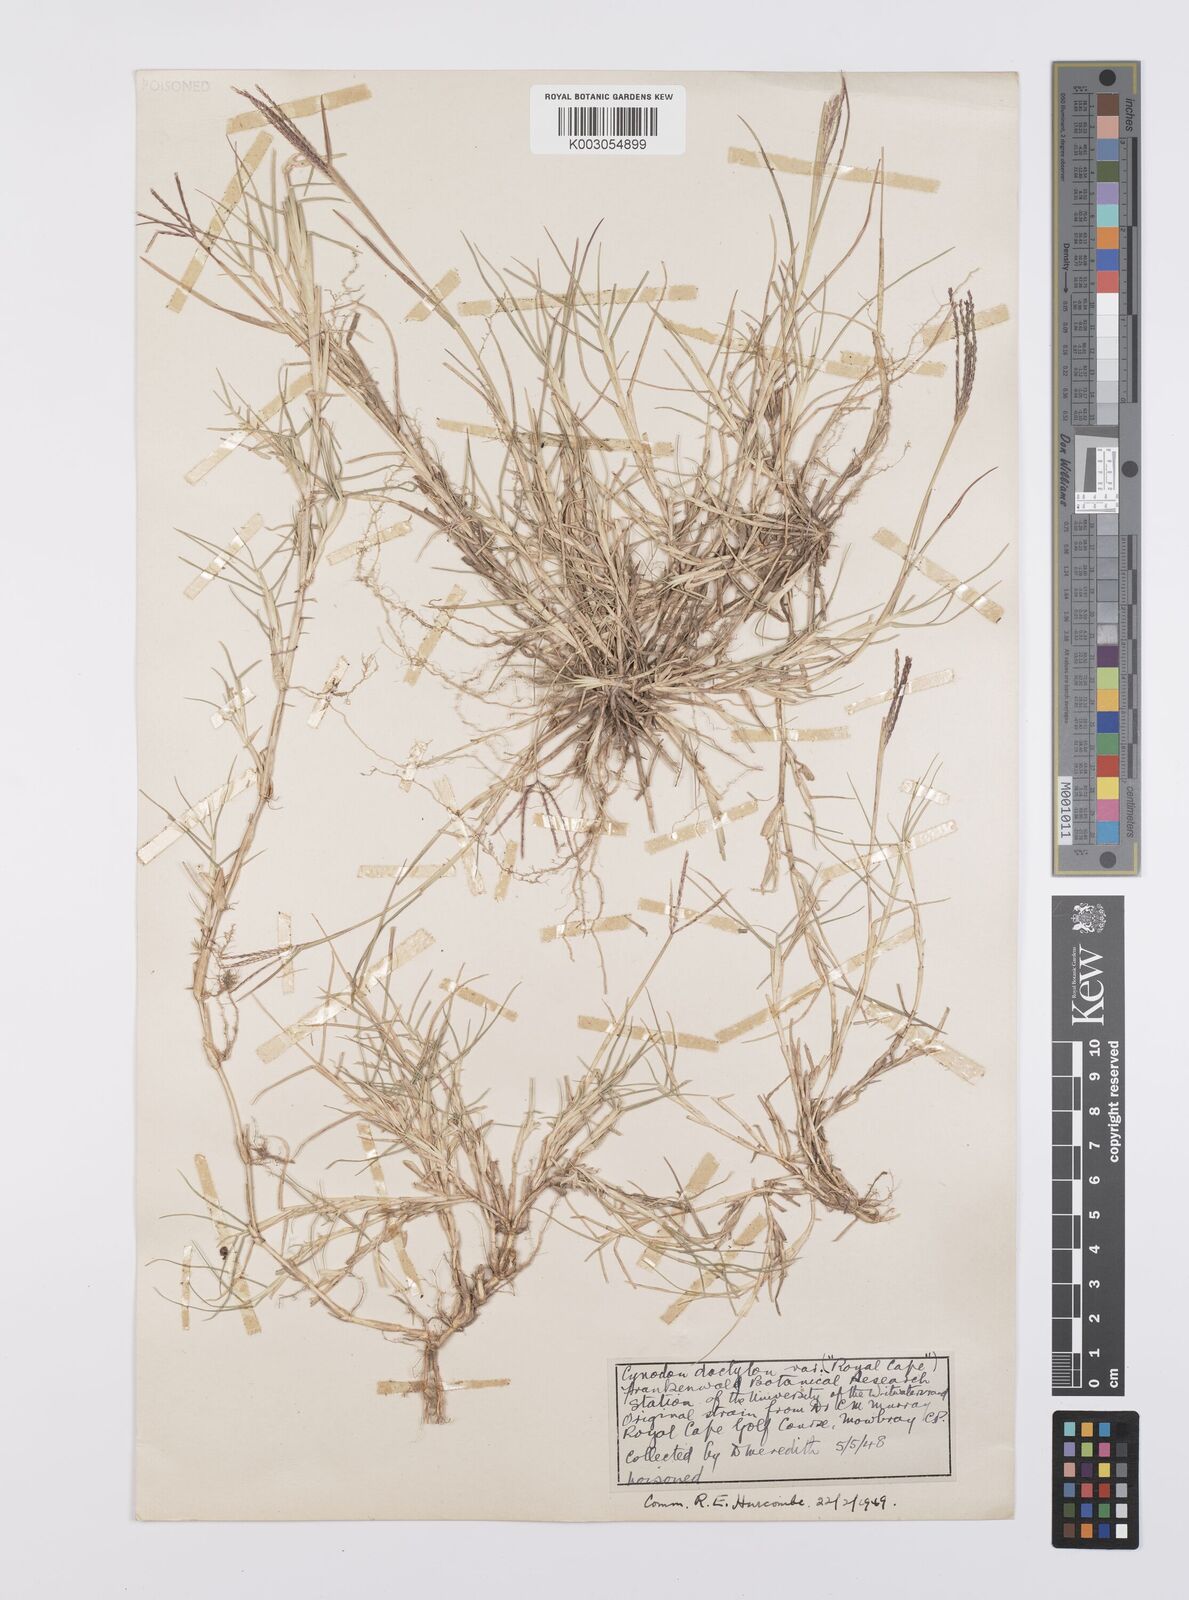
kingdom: Plantae
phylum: Tracheophyta
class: Liliopsida
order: Poales
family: Poaceae
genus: Cynodon
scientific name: Cynodon dactylon
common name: Bermuda grass
